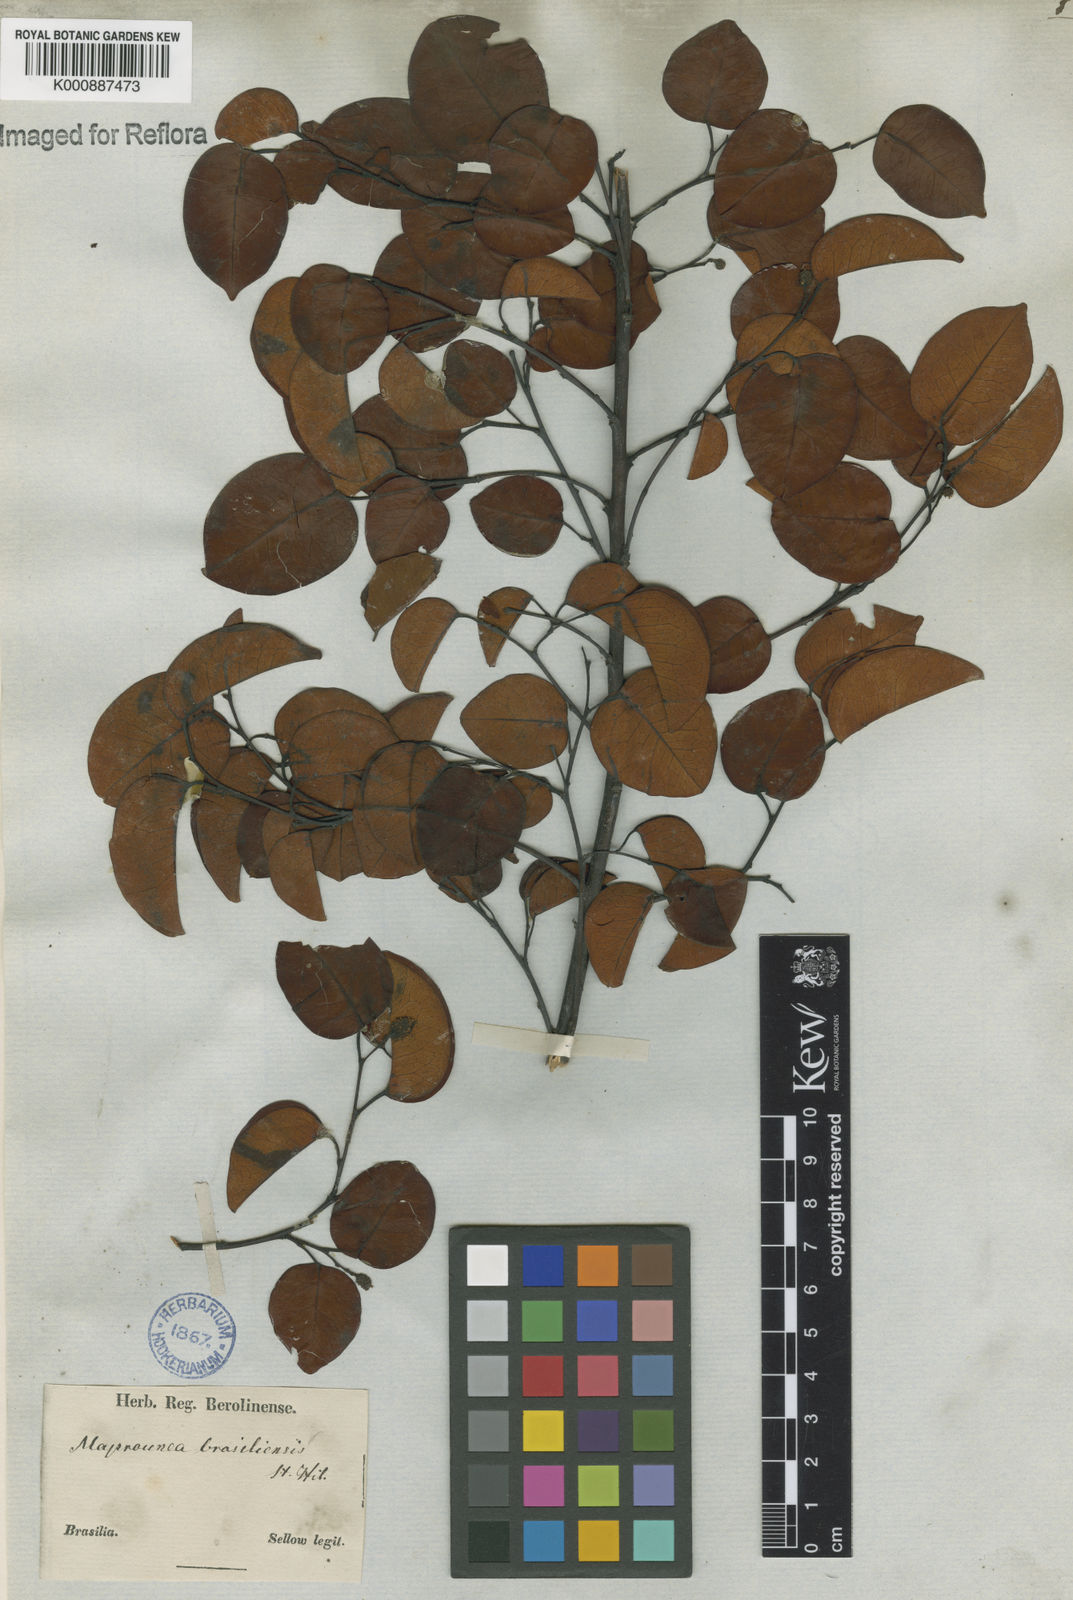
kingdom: Plantae
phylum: Tracheophyta
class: Magnoliopsida
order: Malpighiales
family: Euphorbiaceae
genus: Maprounea
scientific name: Maprounea brasiliensis
